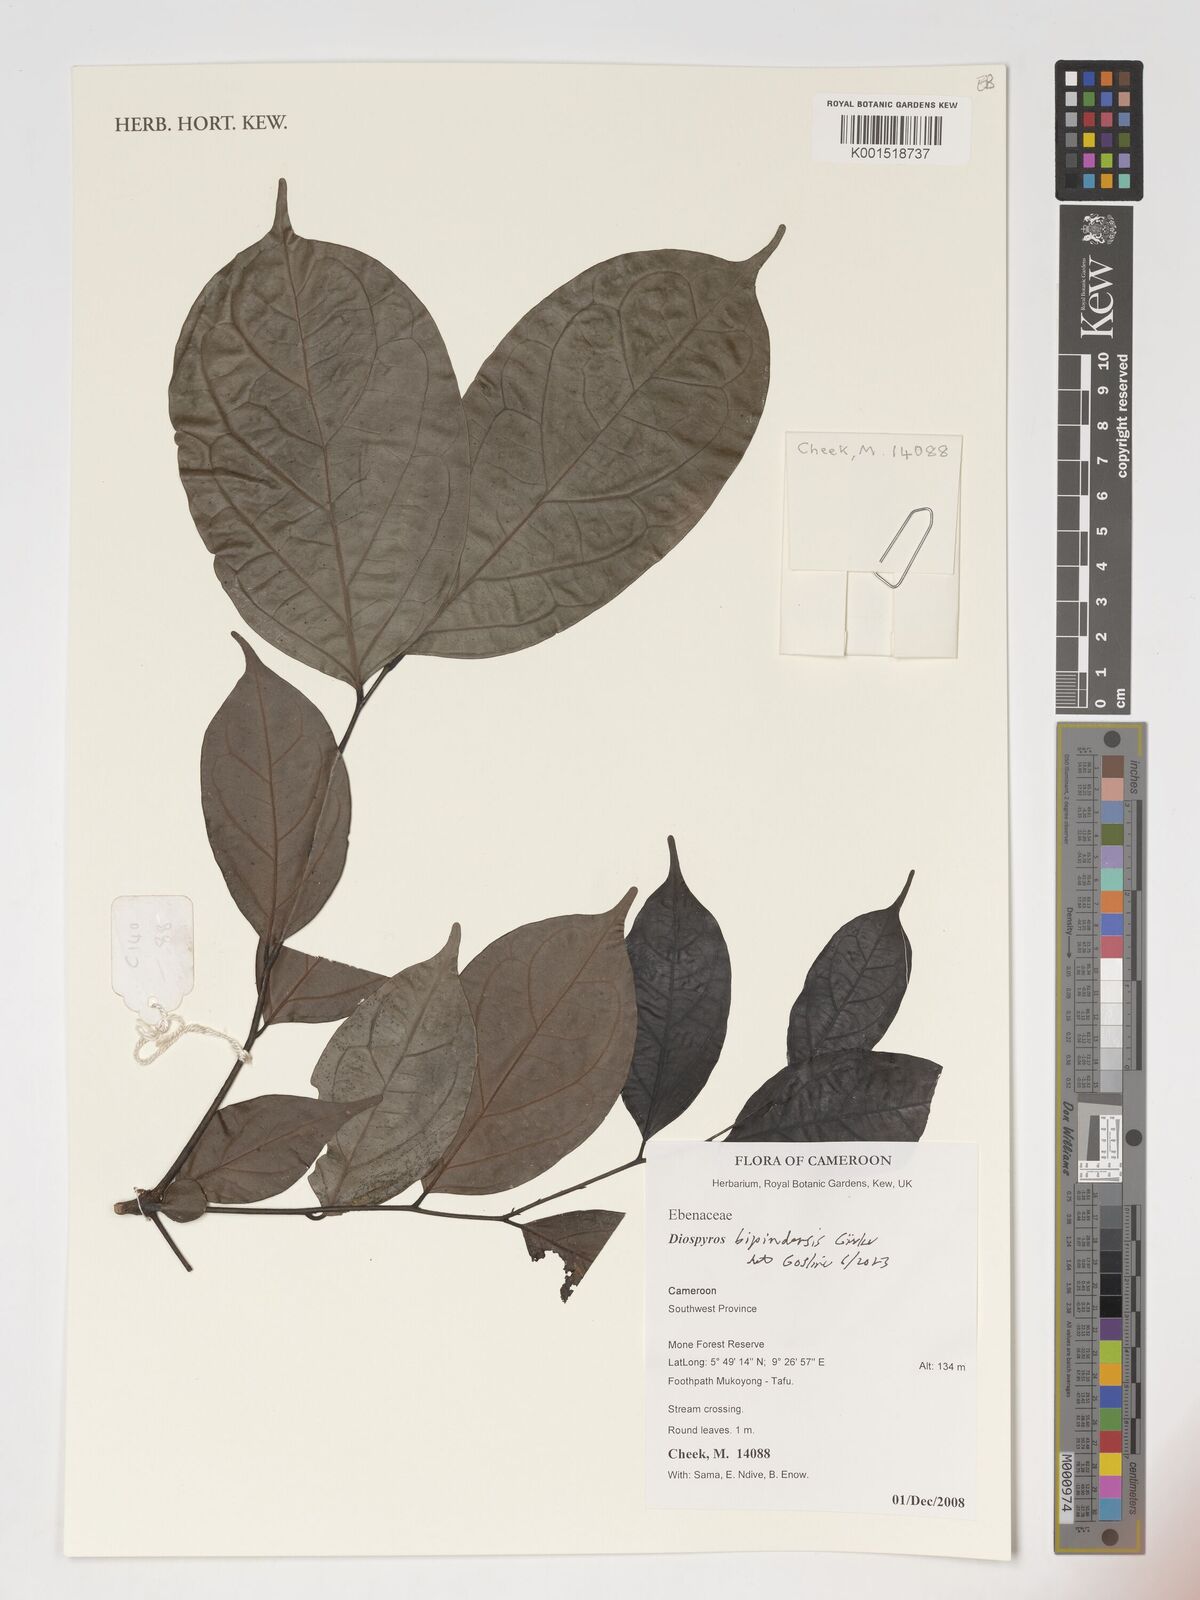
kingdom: Plantae
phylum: Tracheophyta
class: Magnoliopsida
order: Ericales
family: Ebenaceae
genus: Diospyros
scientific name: Diospyros bipindensis
